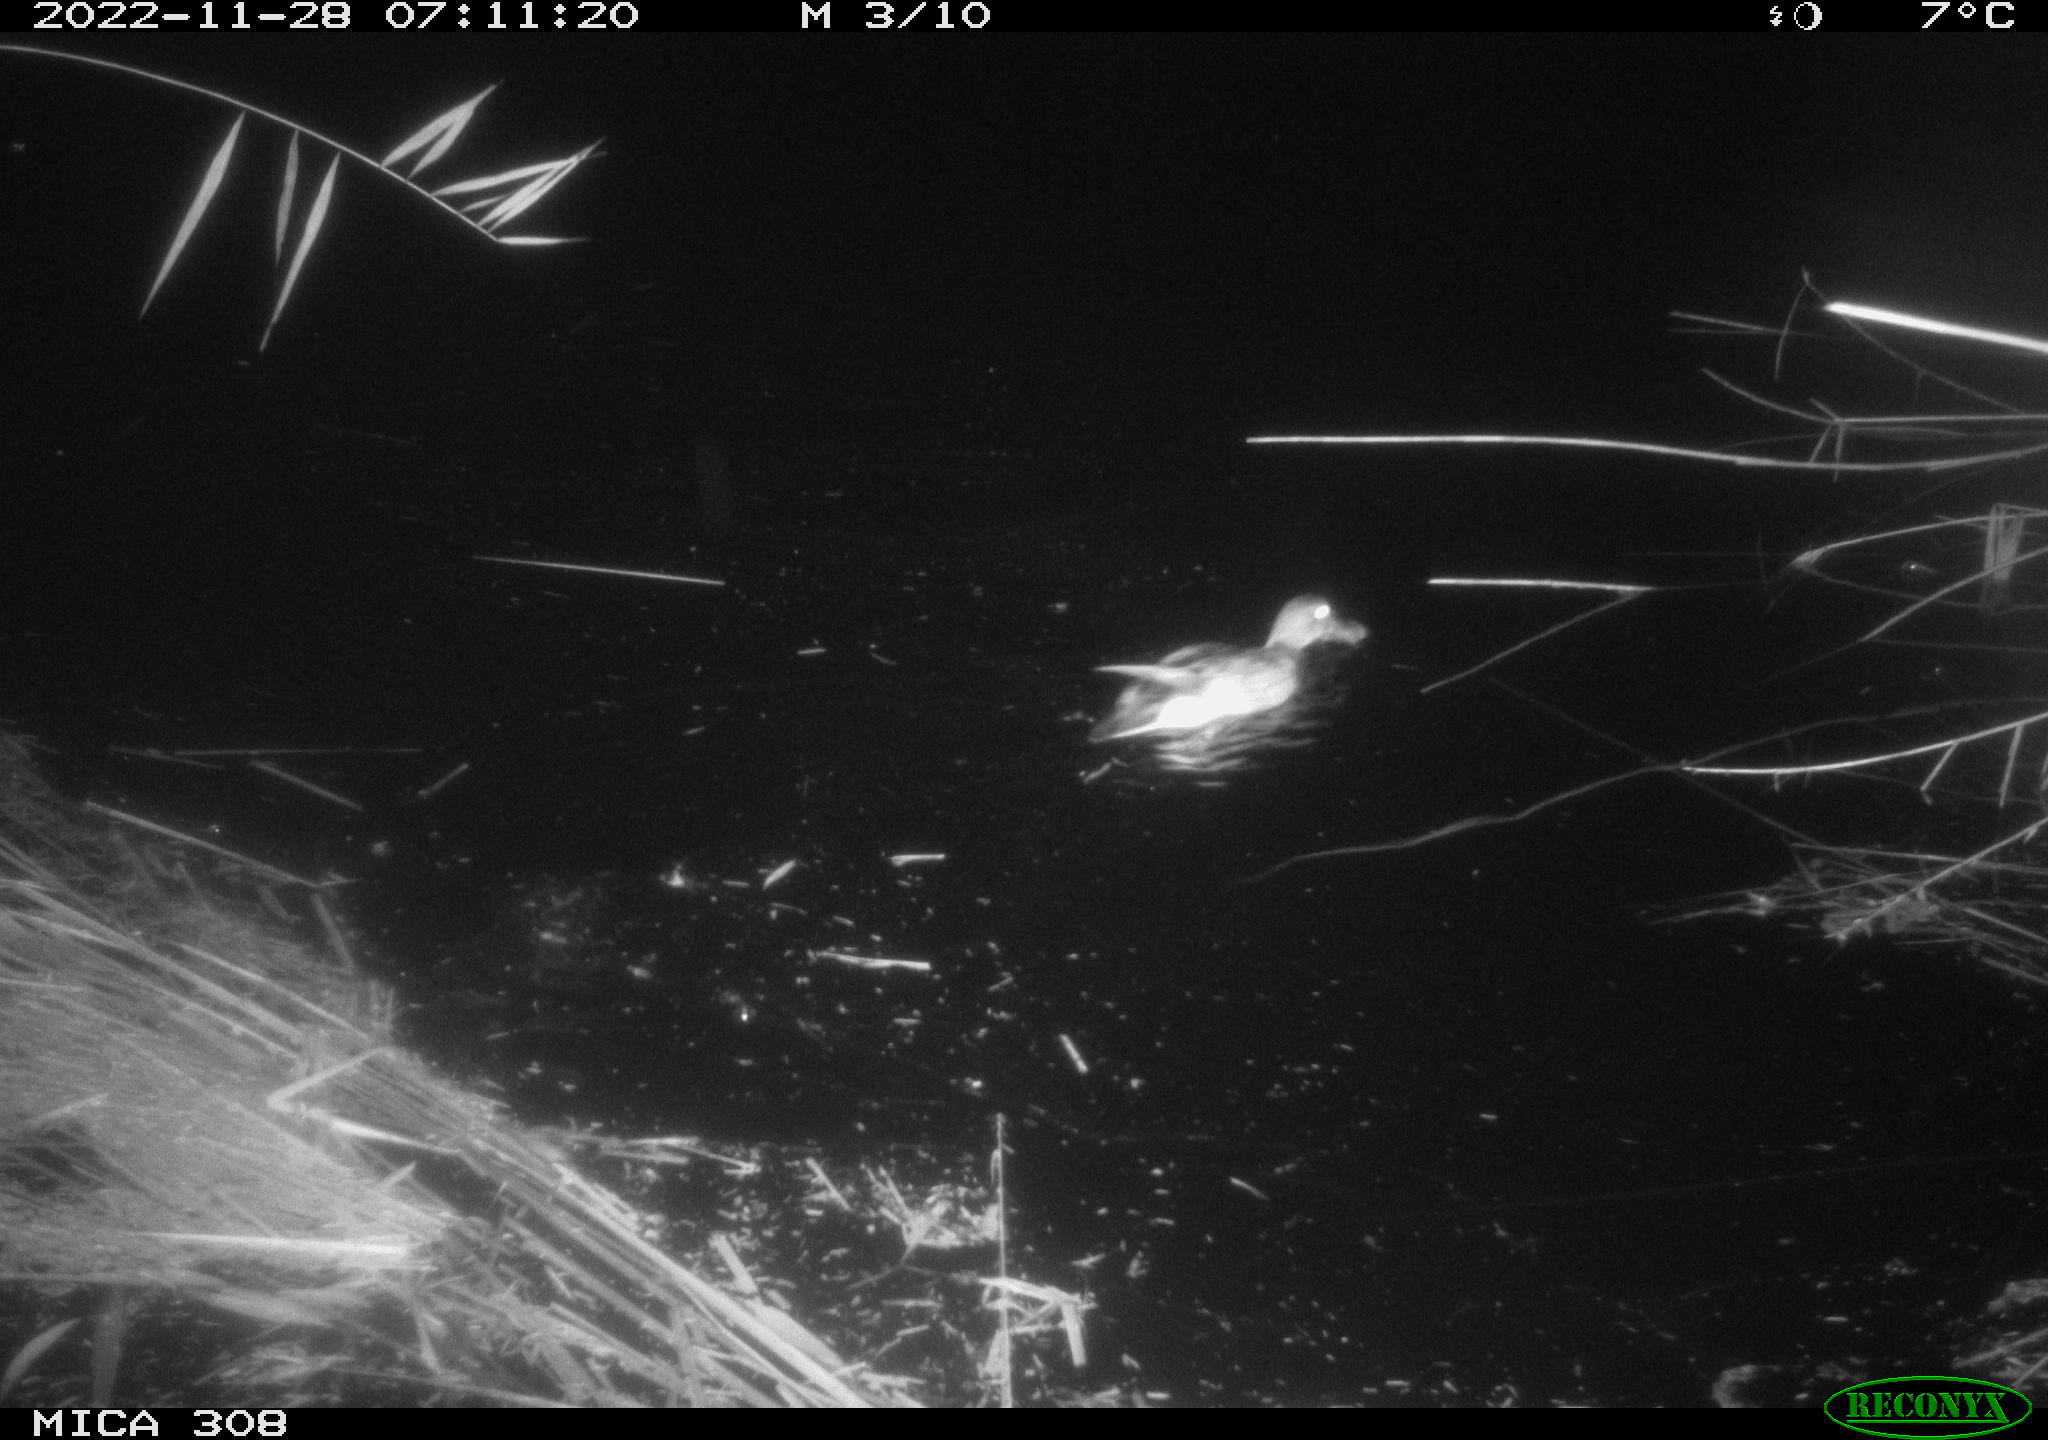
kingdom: Animalia
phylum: Chordata
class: Aves
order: Anseriformes
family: Anatidae
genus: Anas
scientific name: Anas
